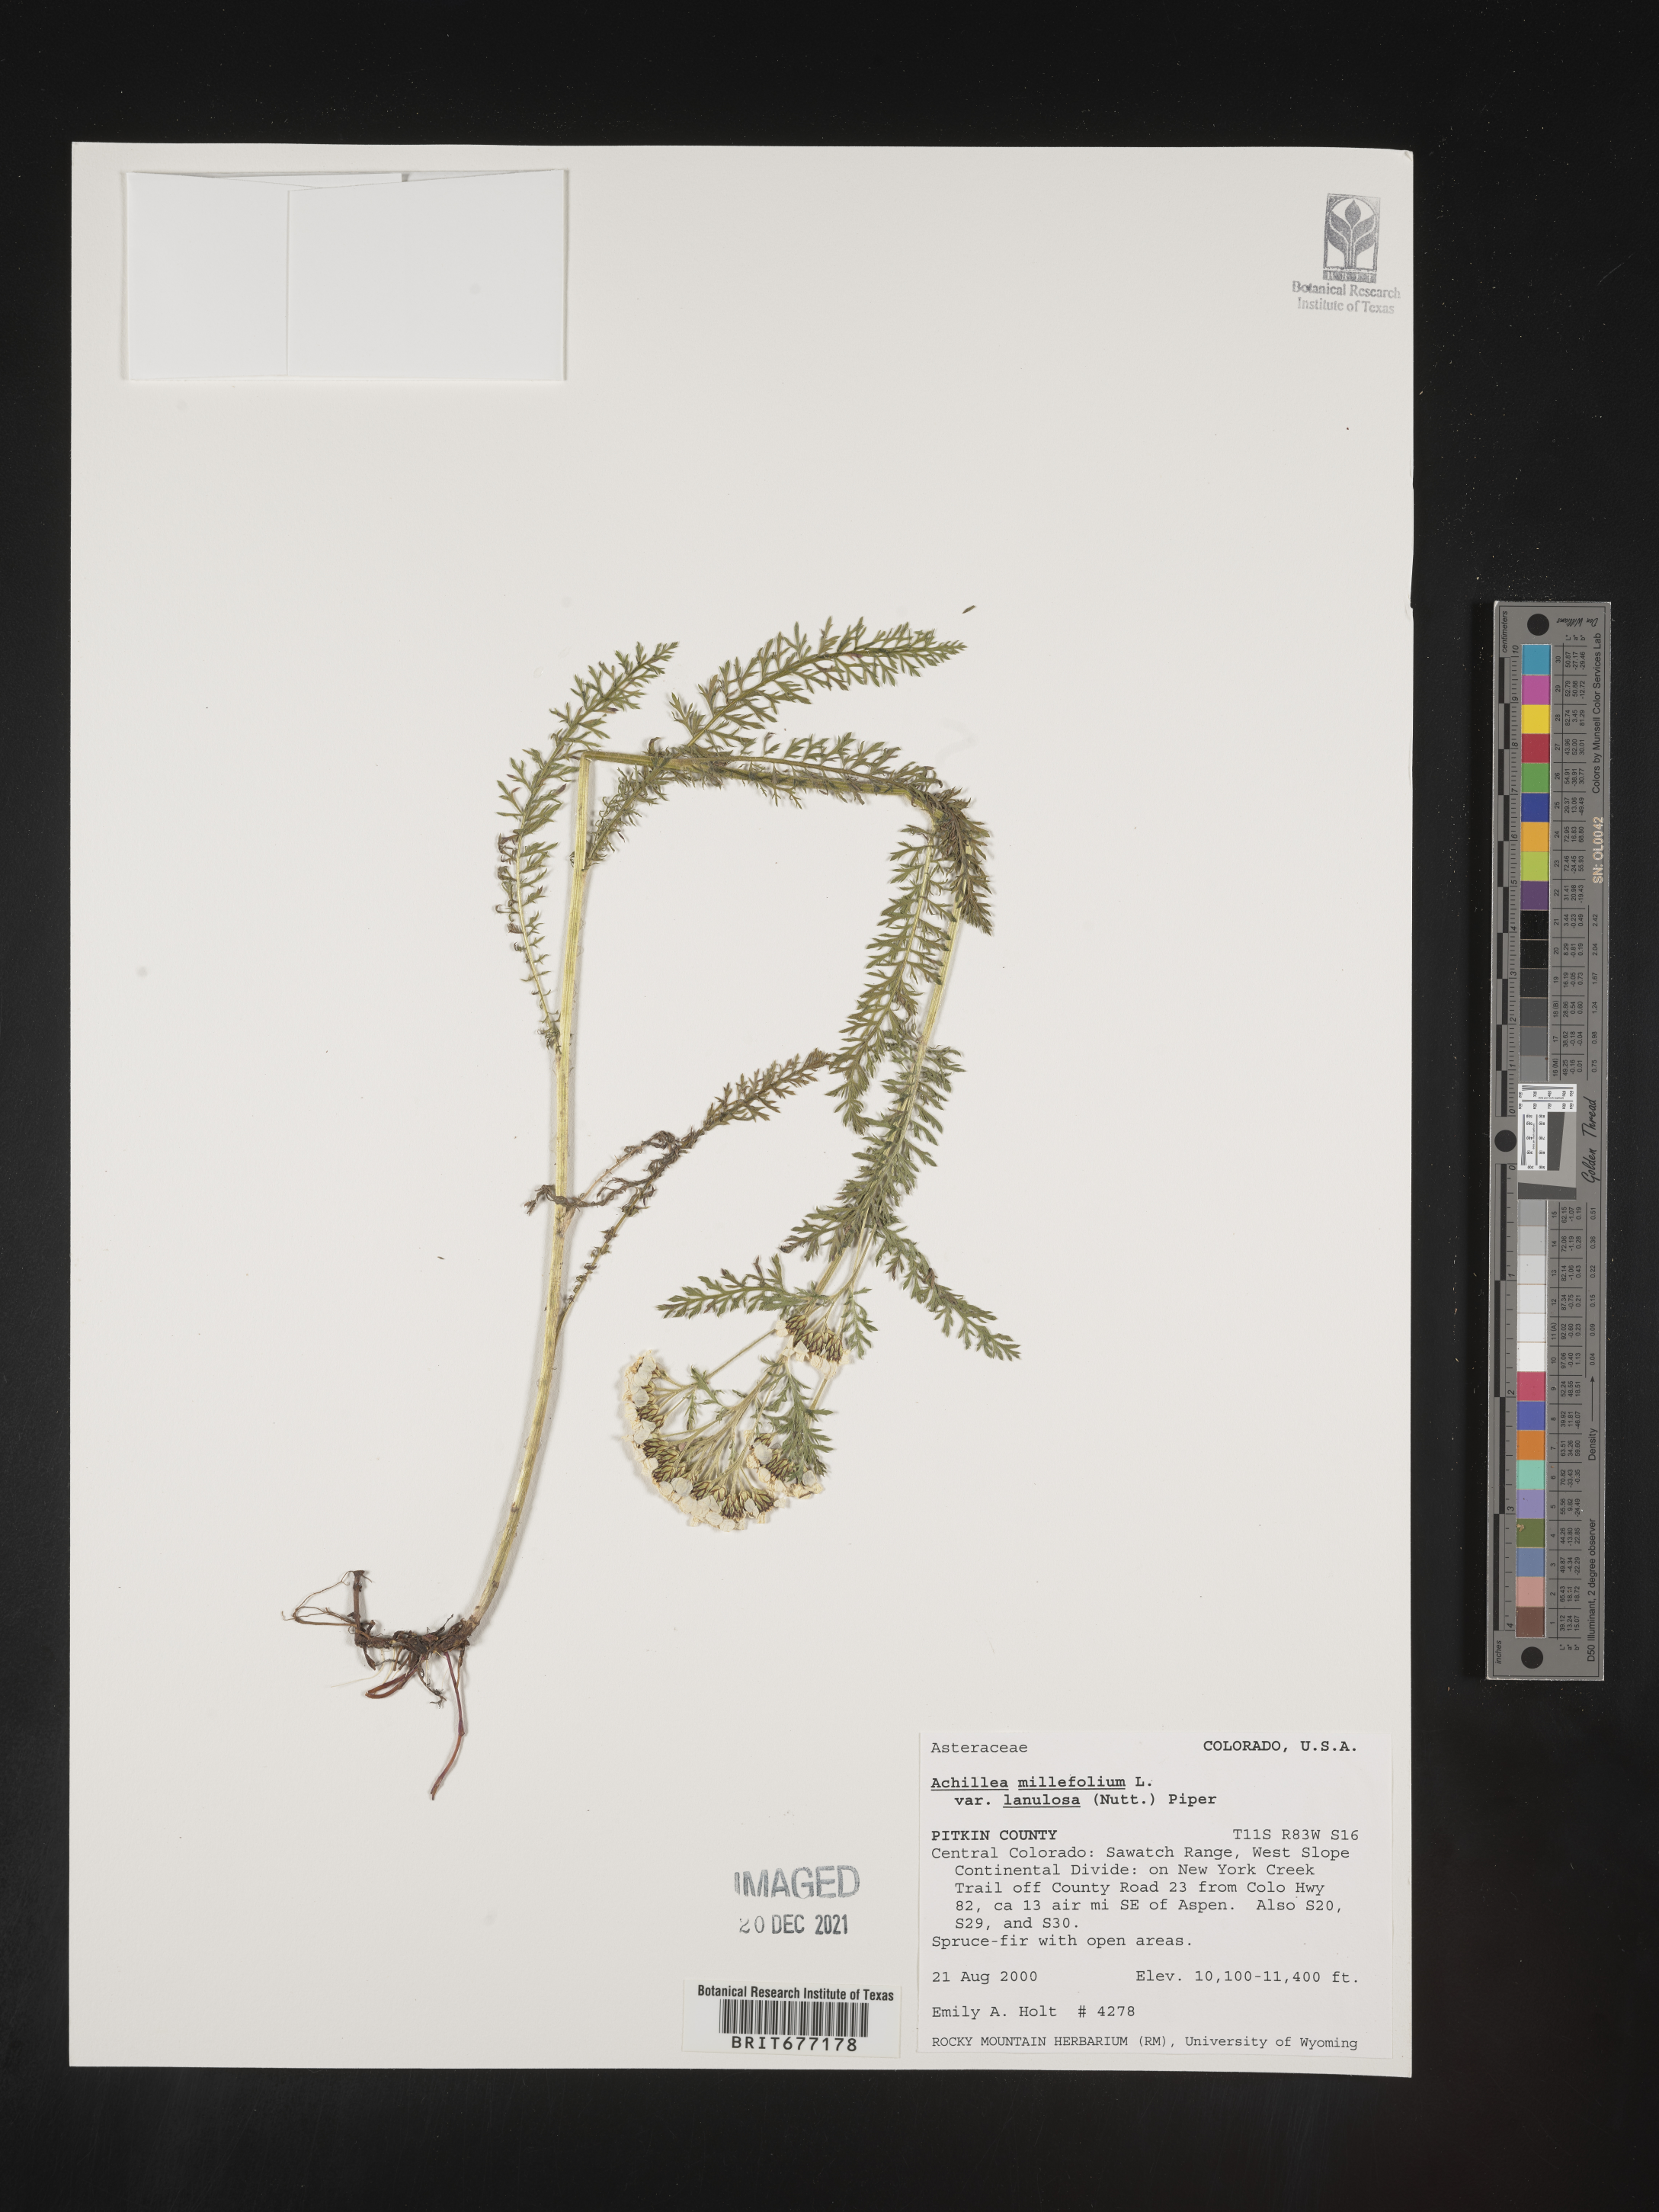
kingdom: Plantae
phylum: Tracheophyta
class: Magnoliopsida
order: Asterales
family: Asteraceae
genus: Achillea
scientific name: Achillea millefolium
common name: Yarrow
